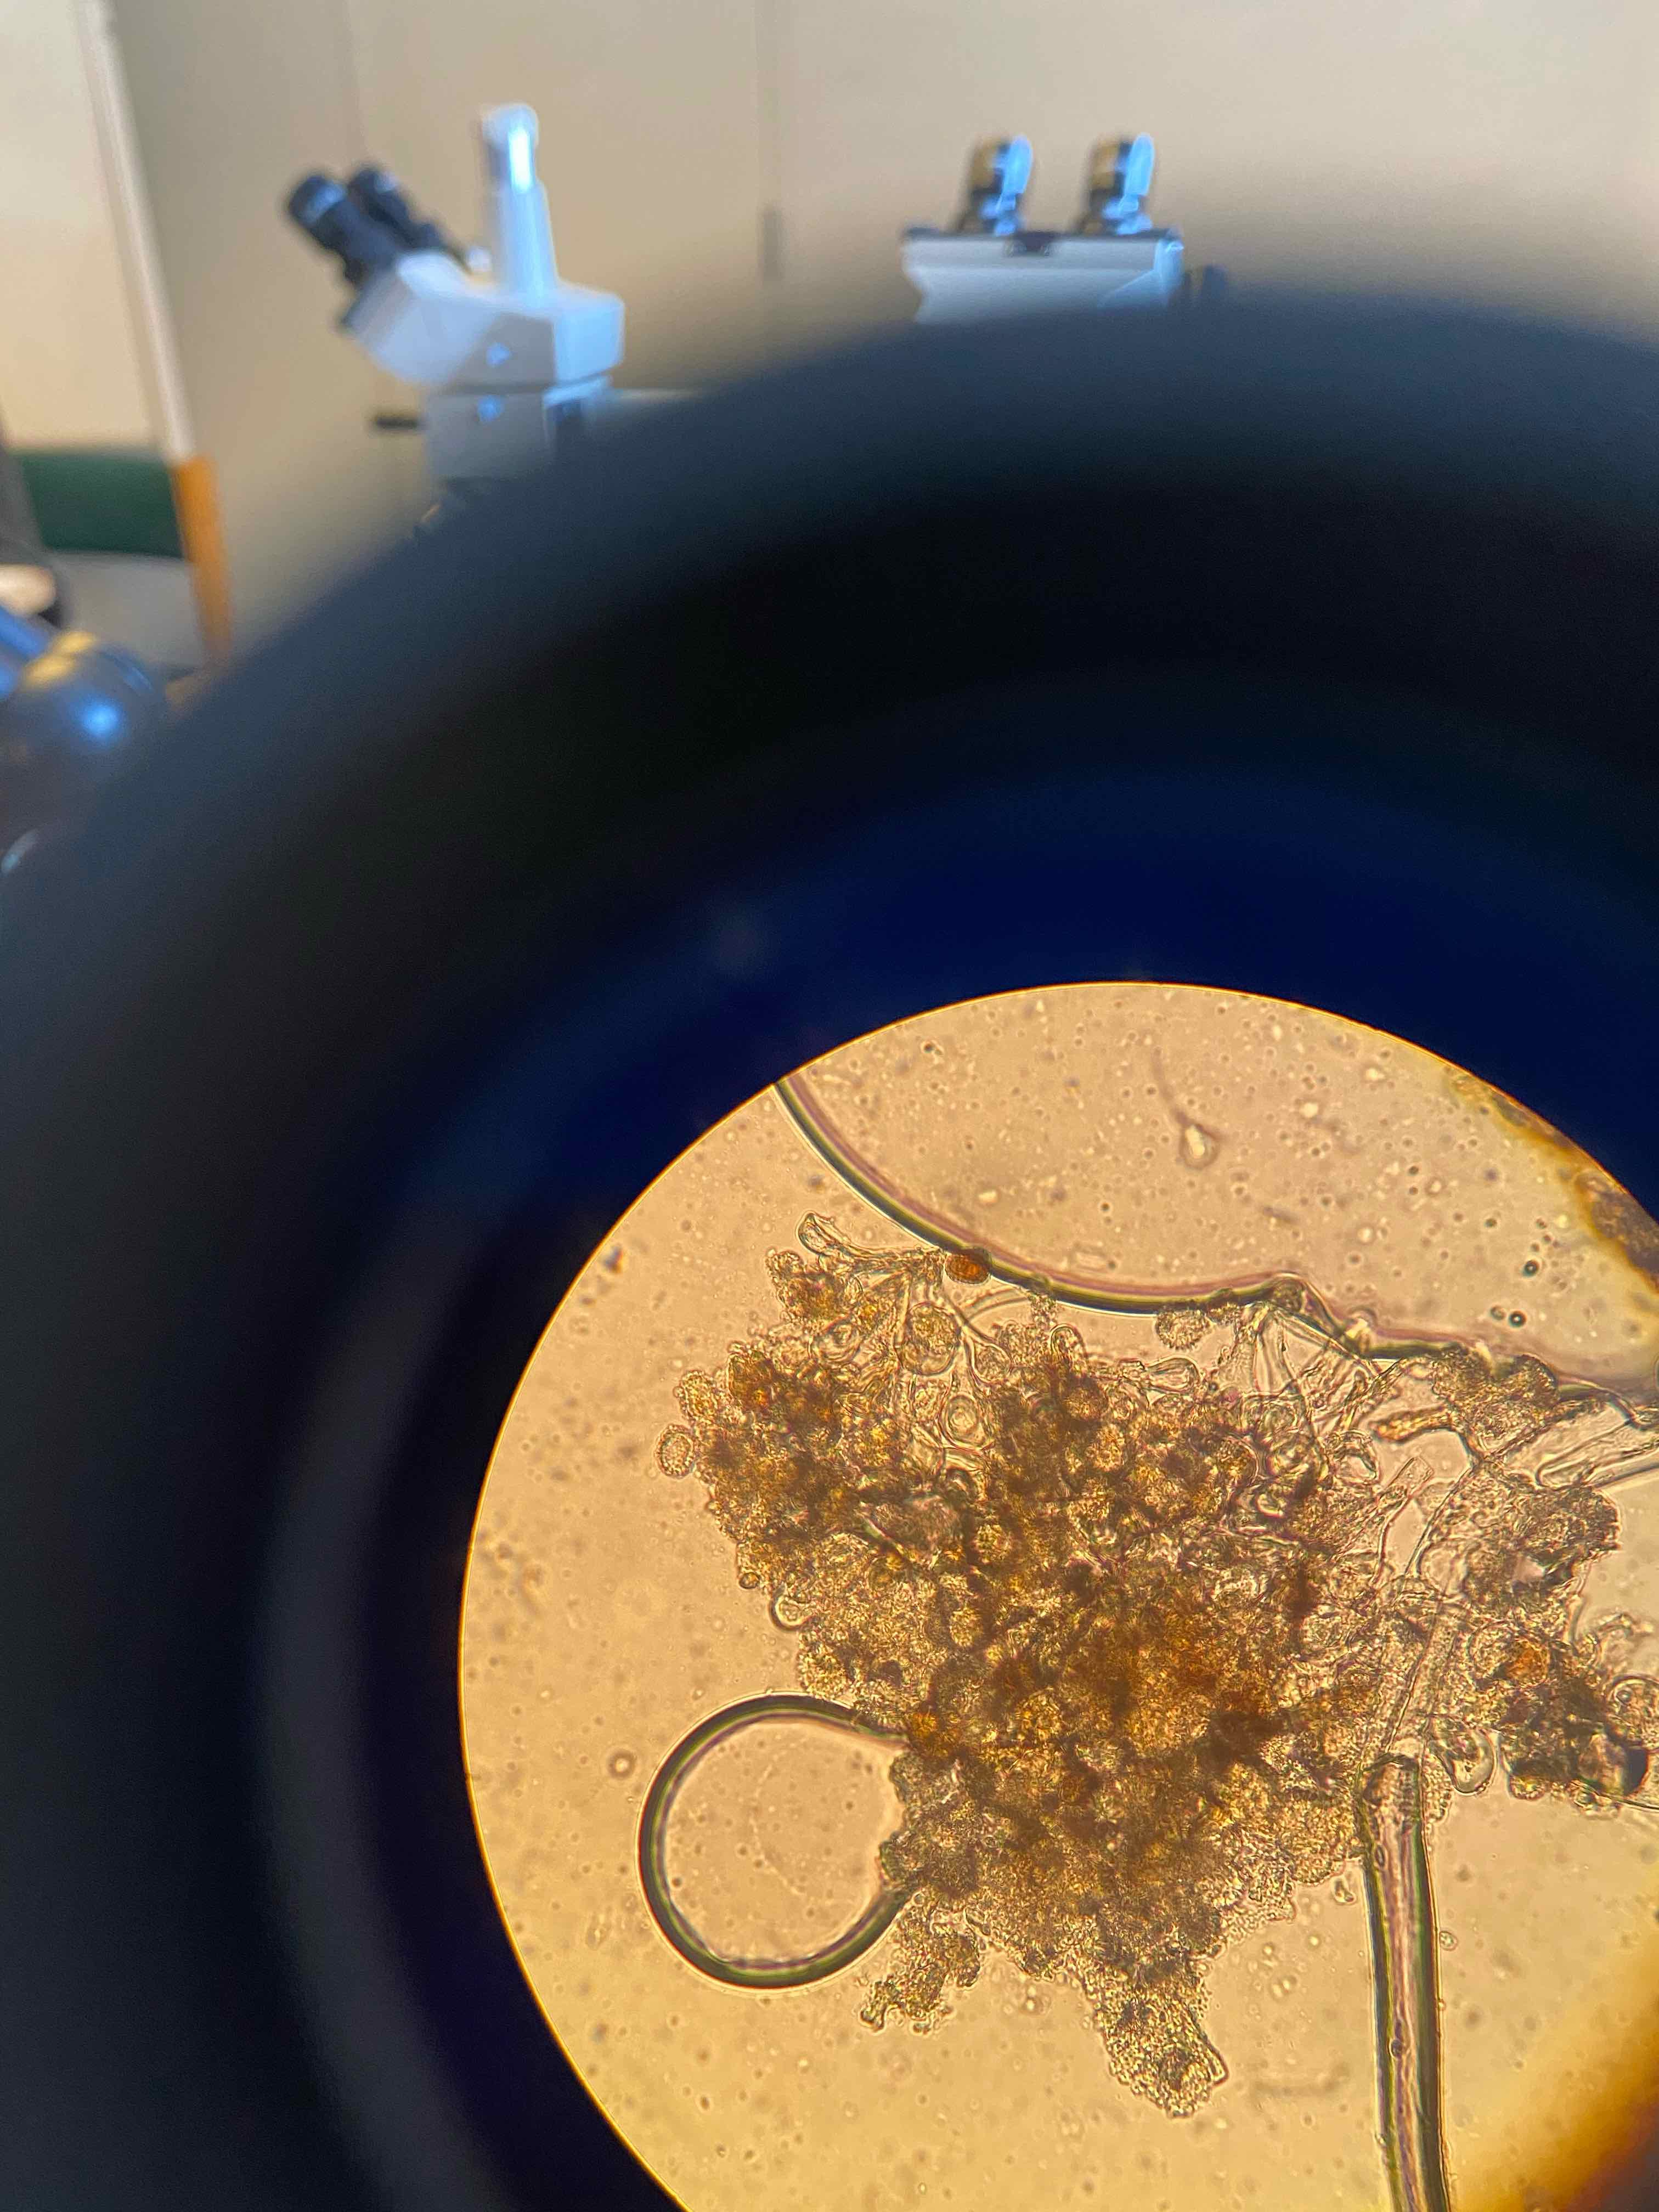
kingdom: Fungi
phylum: Basidiomycota
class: Pucciniomycetes
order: Pucciniales
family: Melampsoraceae
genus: Melampsora
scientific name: Melampsora epitea
